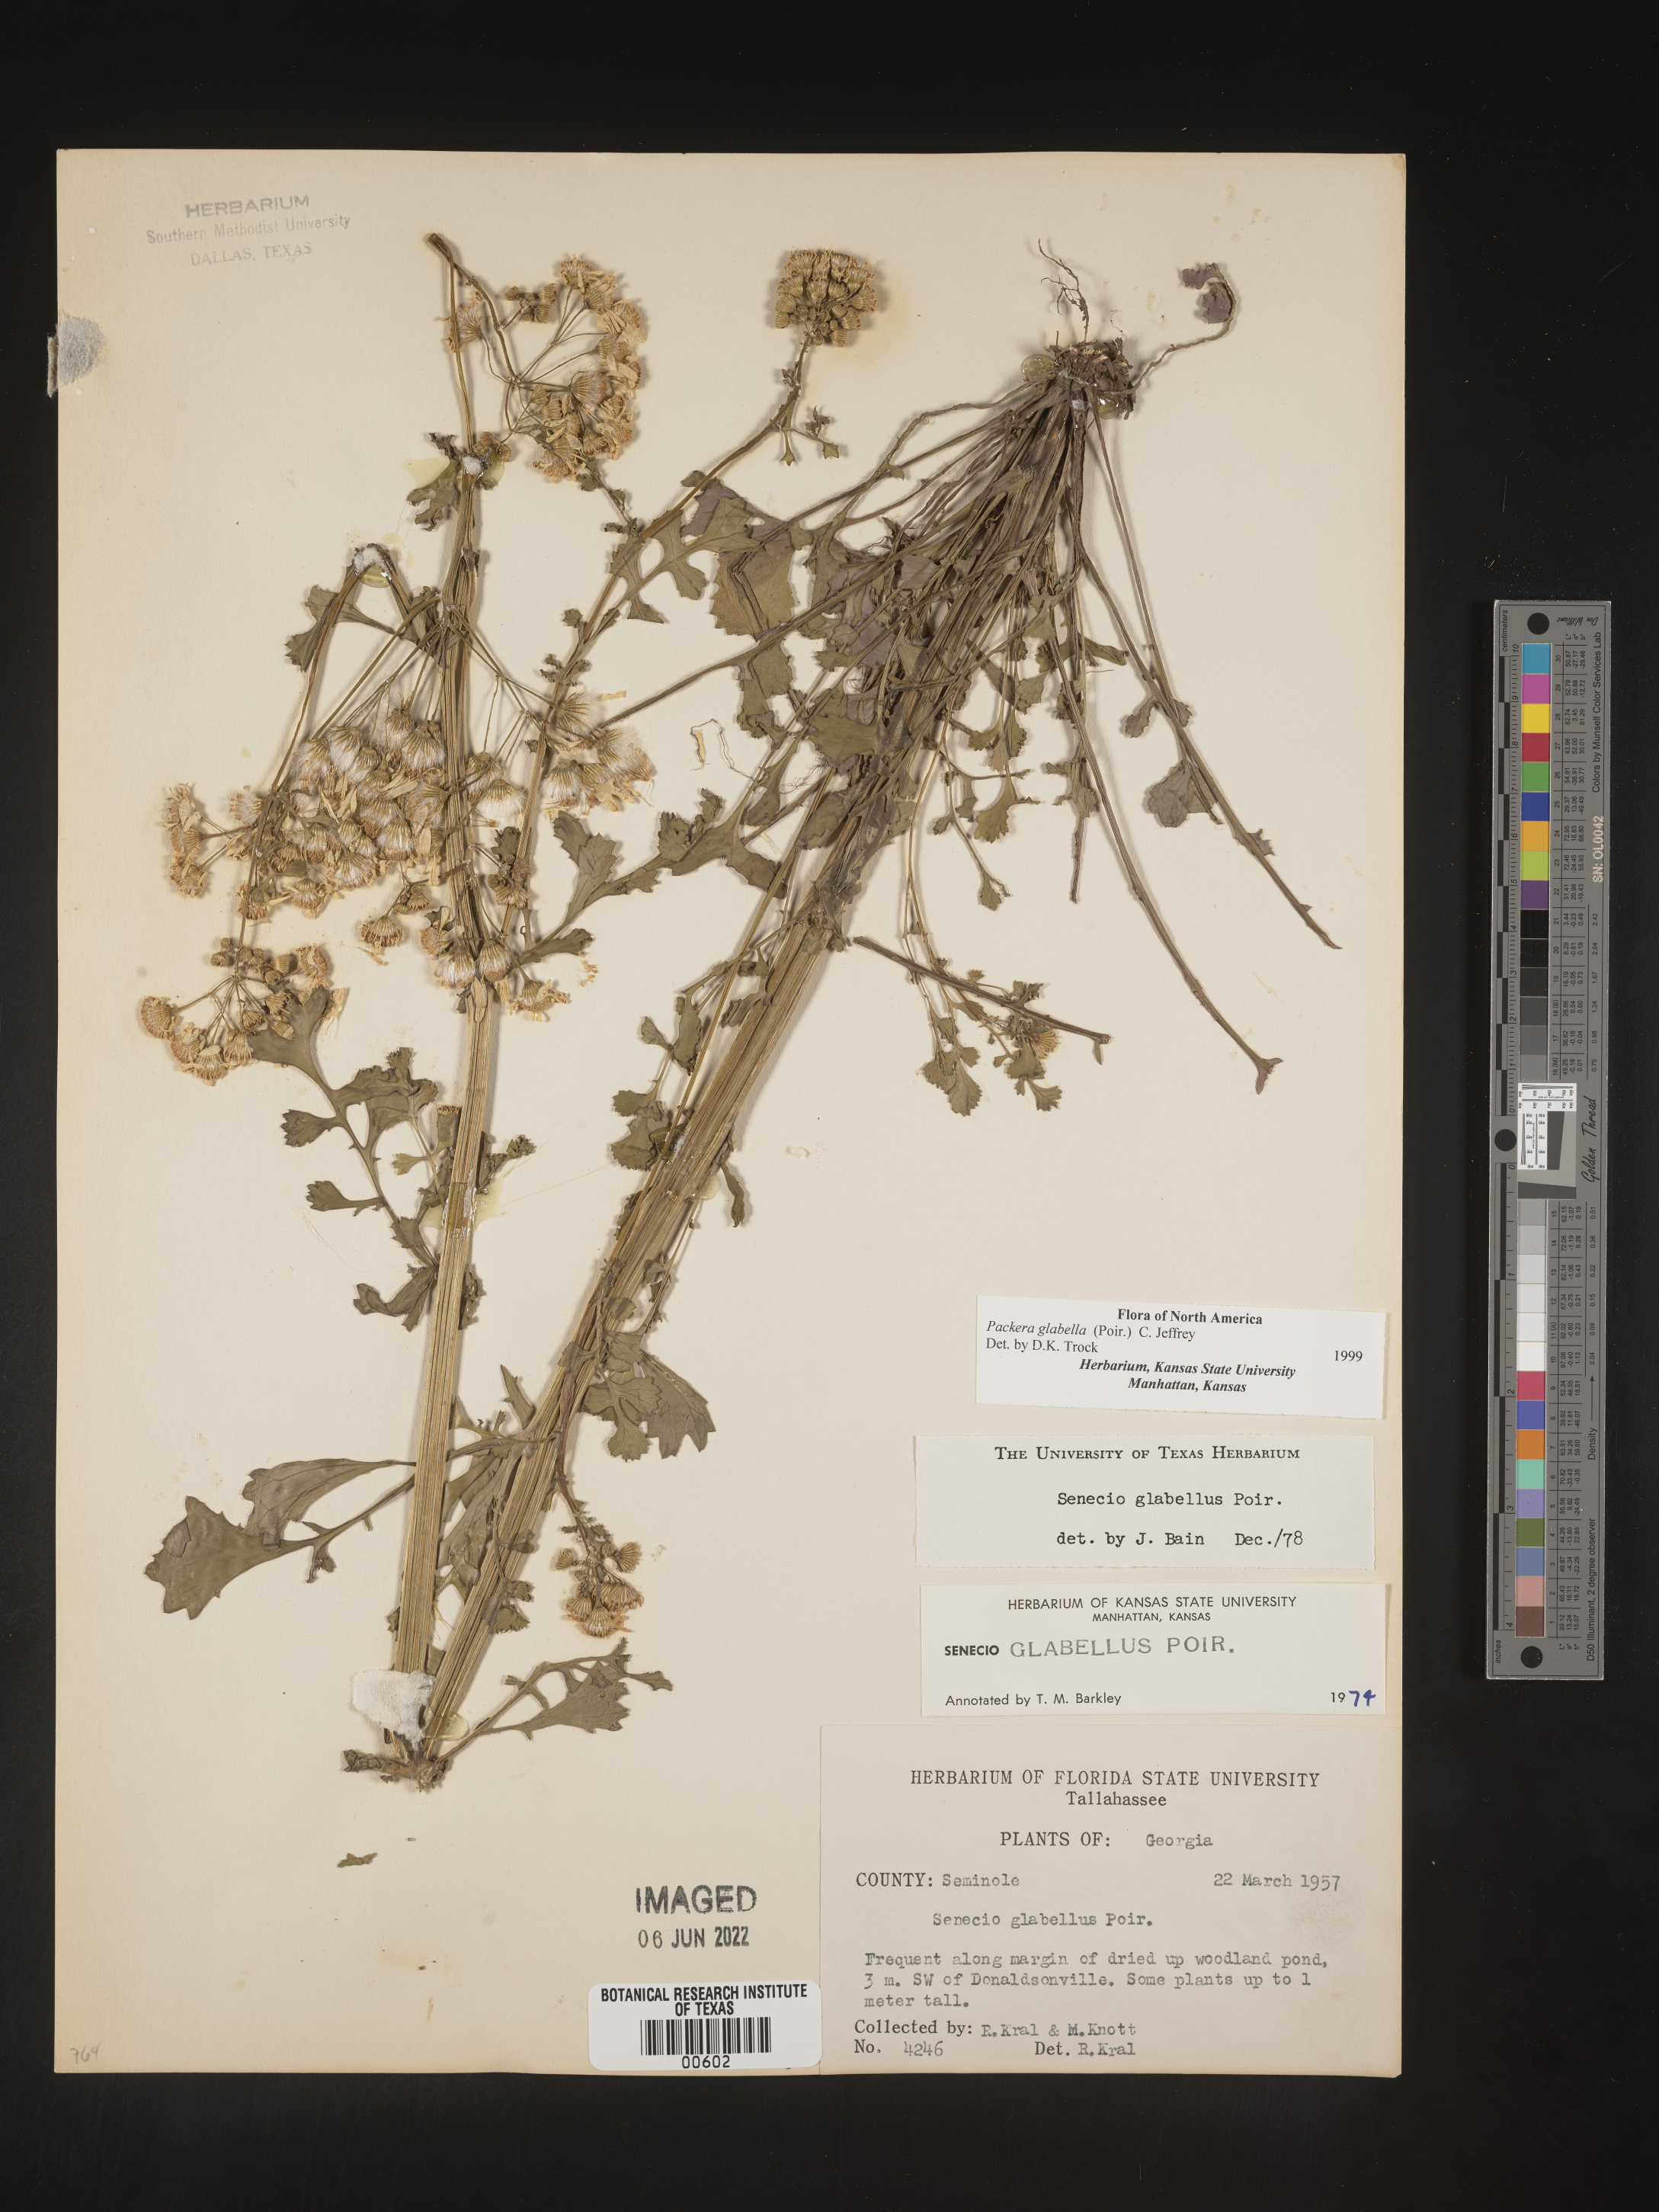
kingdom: Plantae
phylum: Tracheophyta
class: Magnoliopsida
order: Asterales
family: Asteraceae
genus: Packera
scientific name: Packera glabella
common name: Butterweed
